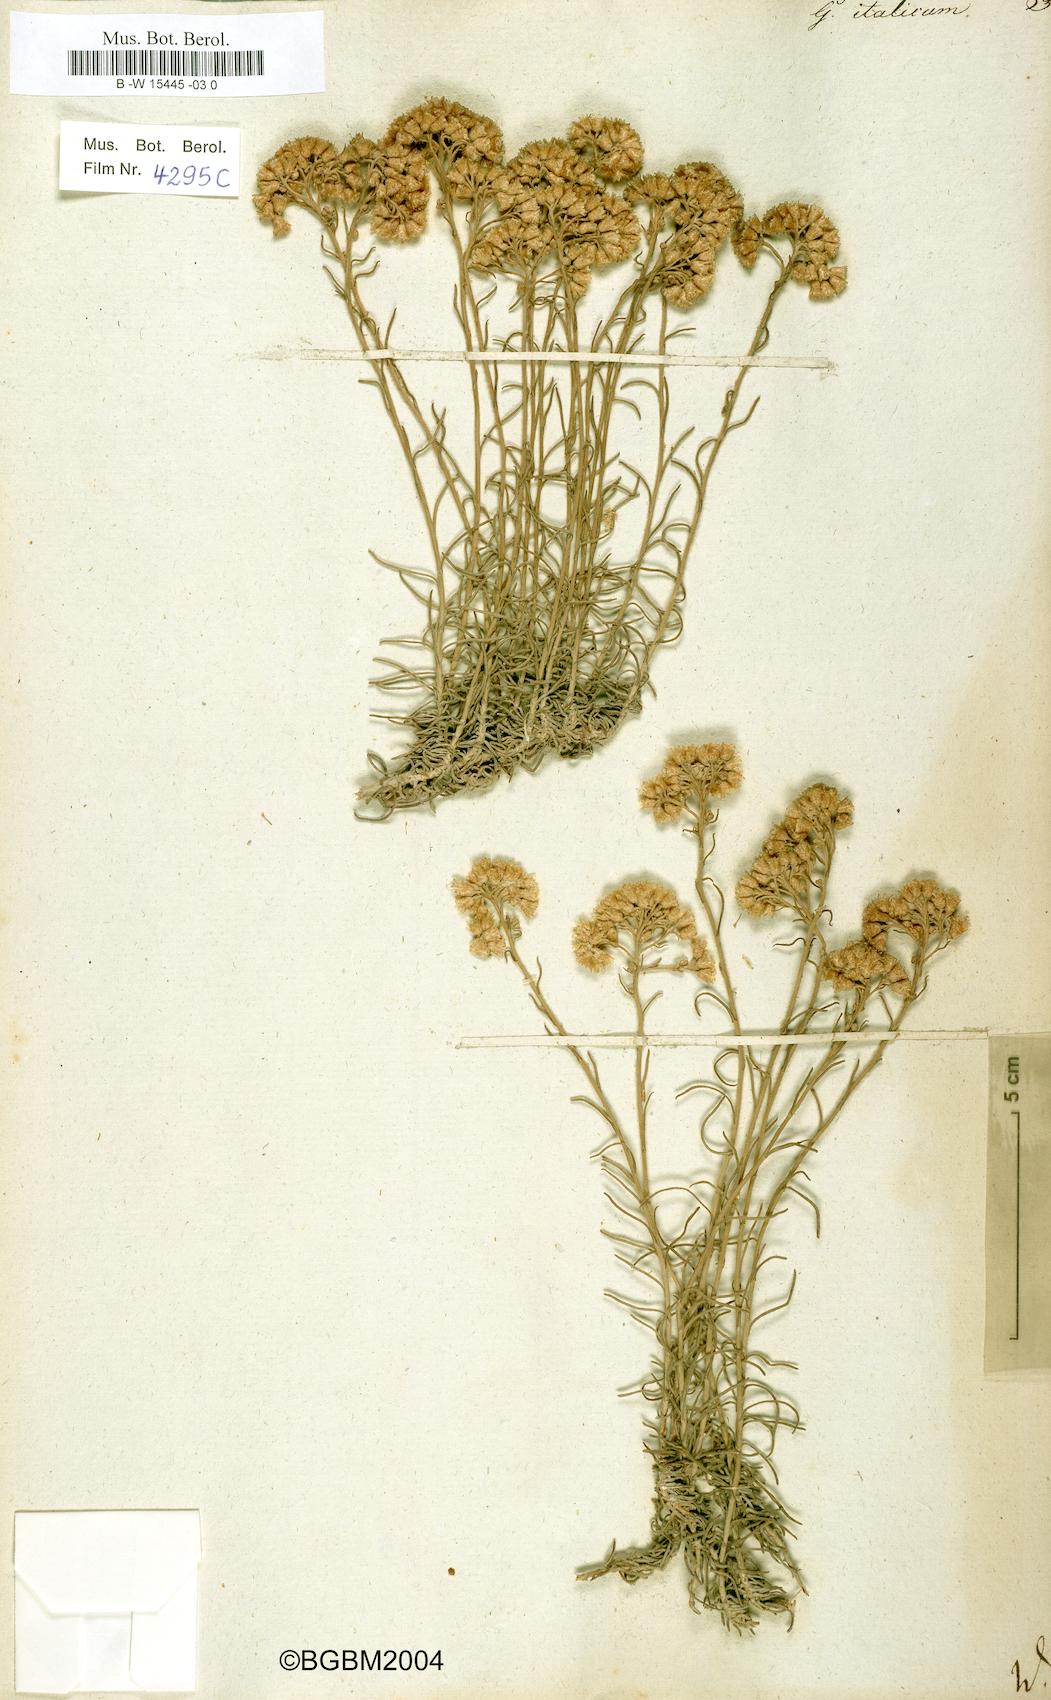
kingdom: Plantae
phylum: Tracheophyta
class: Magnoliopsida
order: Asterales
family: Asteraceae
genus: Helichrysum
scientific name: Helichrysum italicum
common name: Curryplant
